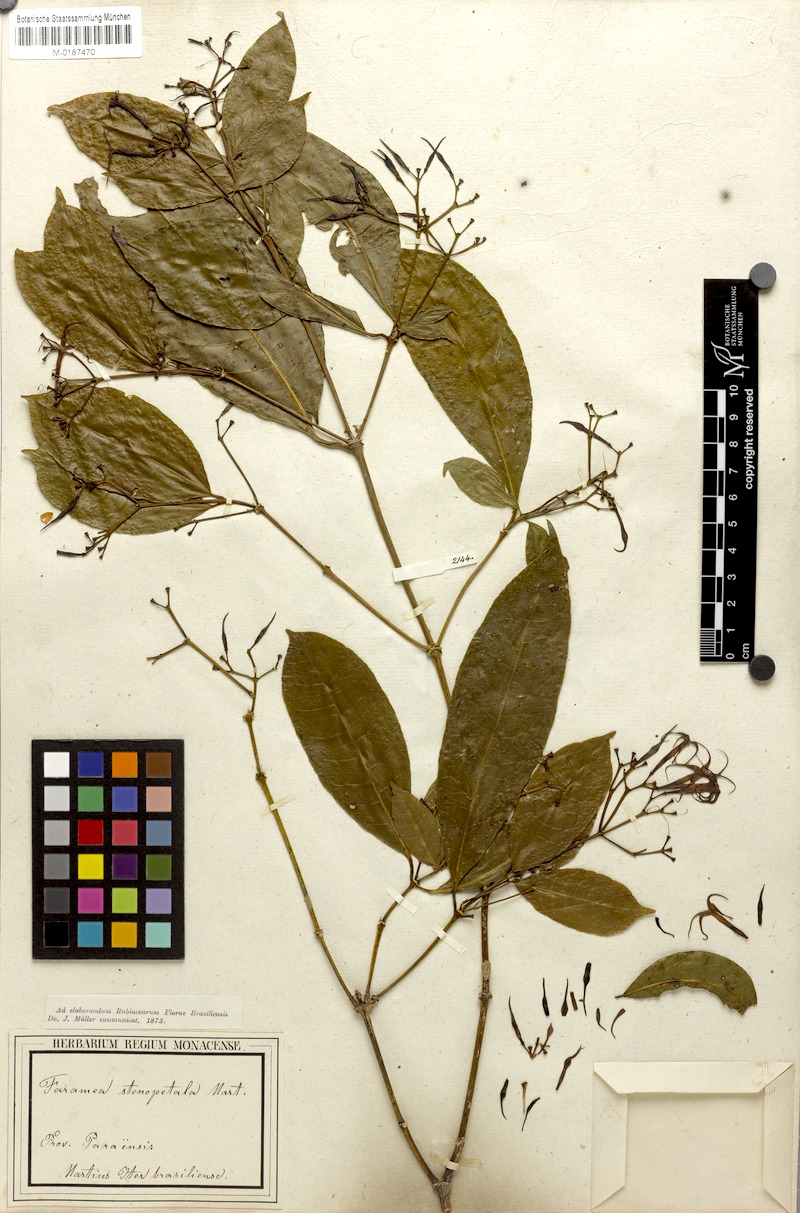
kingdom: Plantae
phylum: Tracheophyta
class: Magnoliopsida
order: Gentianales
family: Rubiaceae
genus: Faramea
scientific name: Faramea stenopetala
